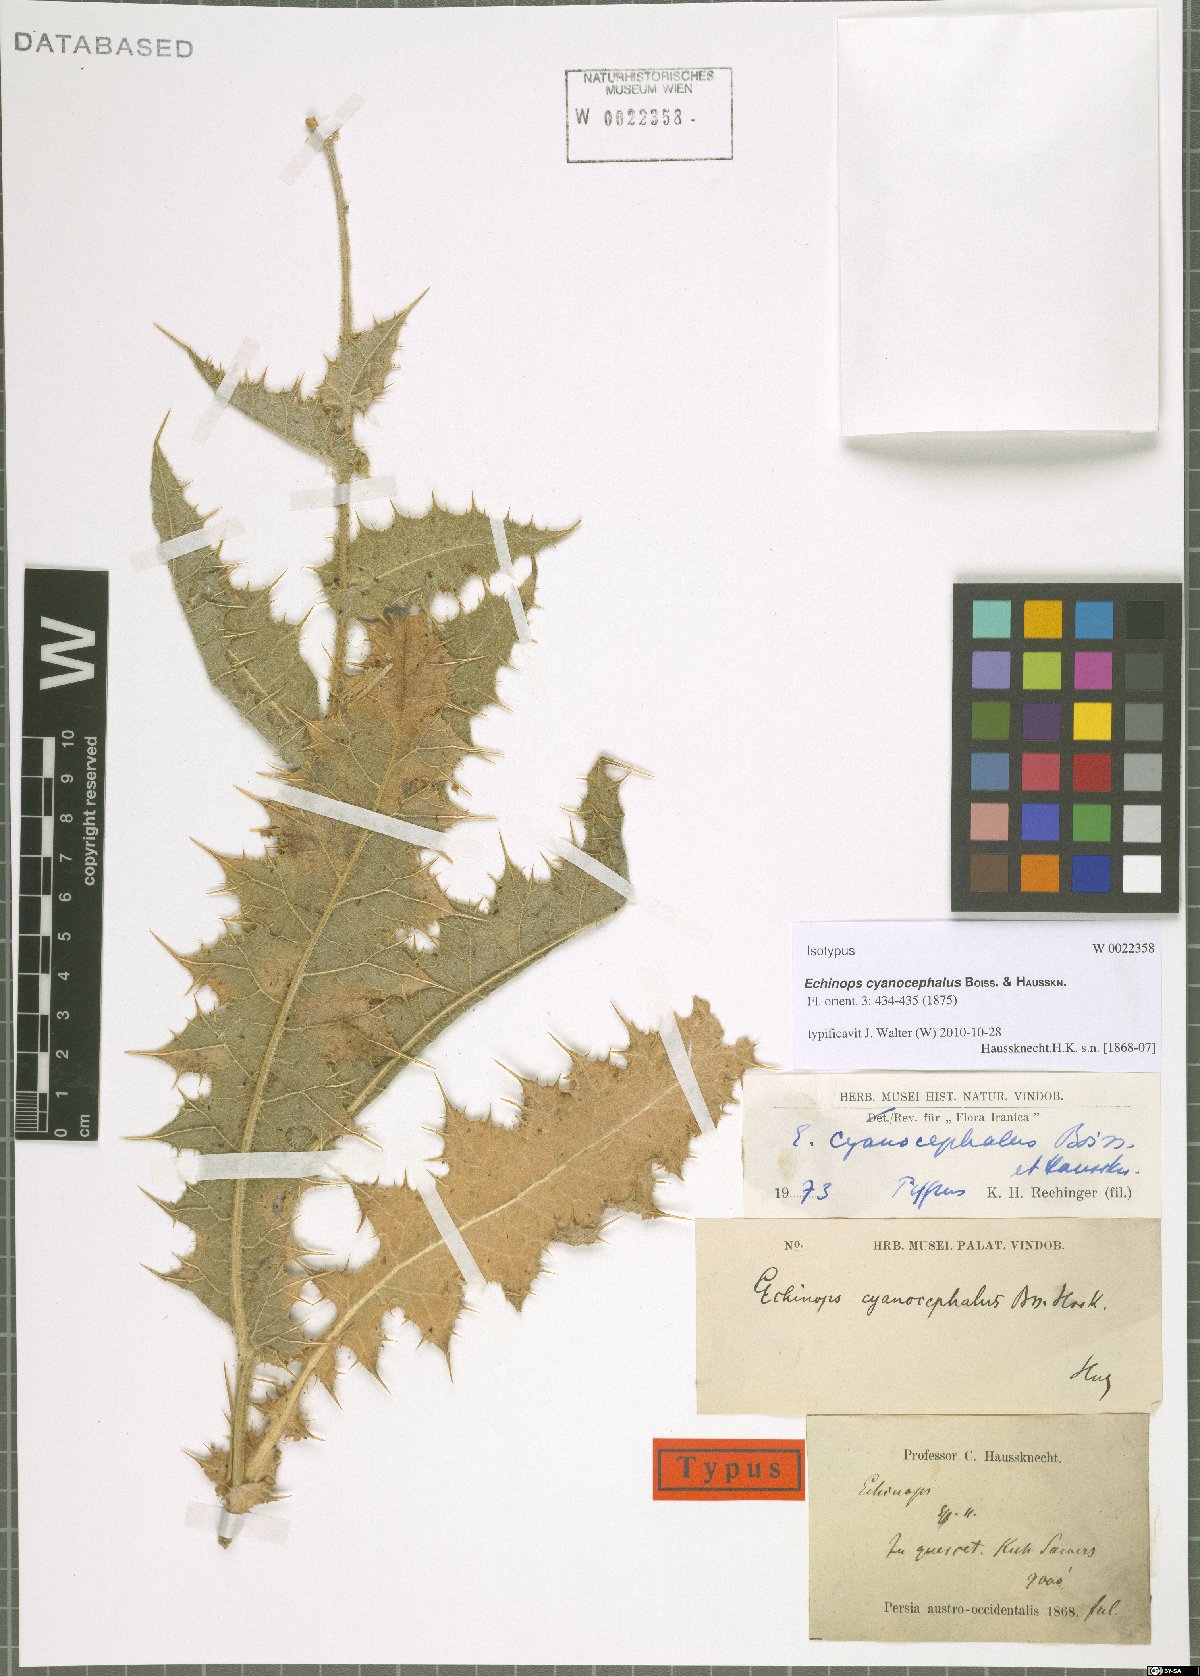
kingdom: Plantae
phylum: Tracheophyta
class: Magnoliopsida
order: Asterales
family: Asteraceae
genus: Echinops
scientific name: Echinops cyanocephalus
